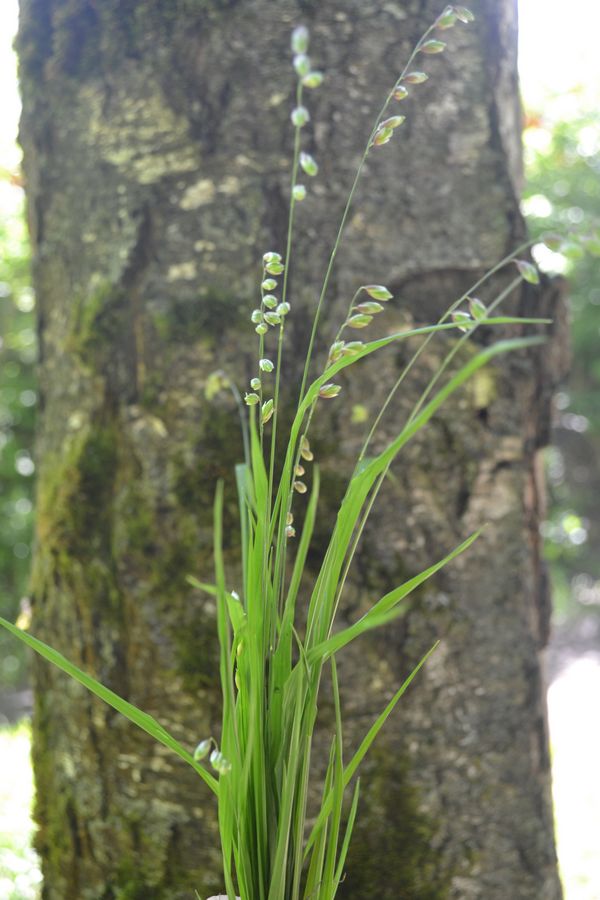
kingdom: Plantae
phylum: Tracheophyta
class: Liliopsida
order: Poales
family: Poaceae
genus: Melica
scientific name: Melica nutans
